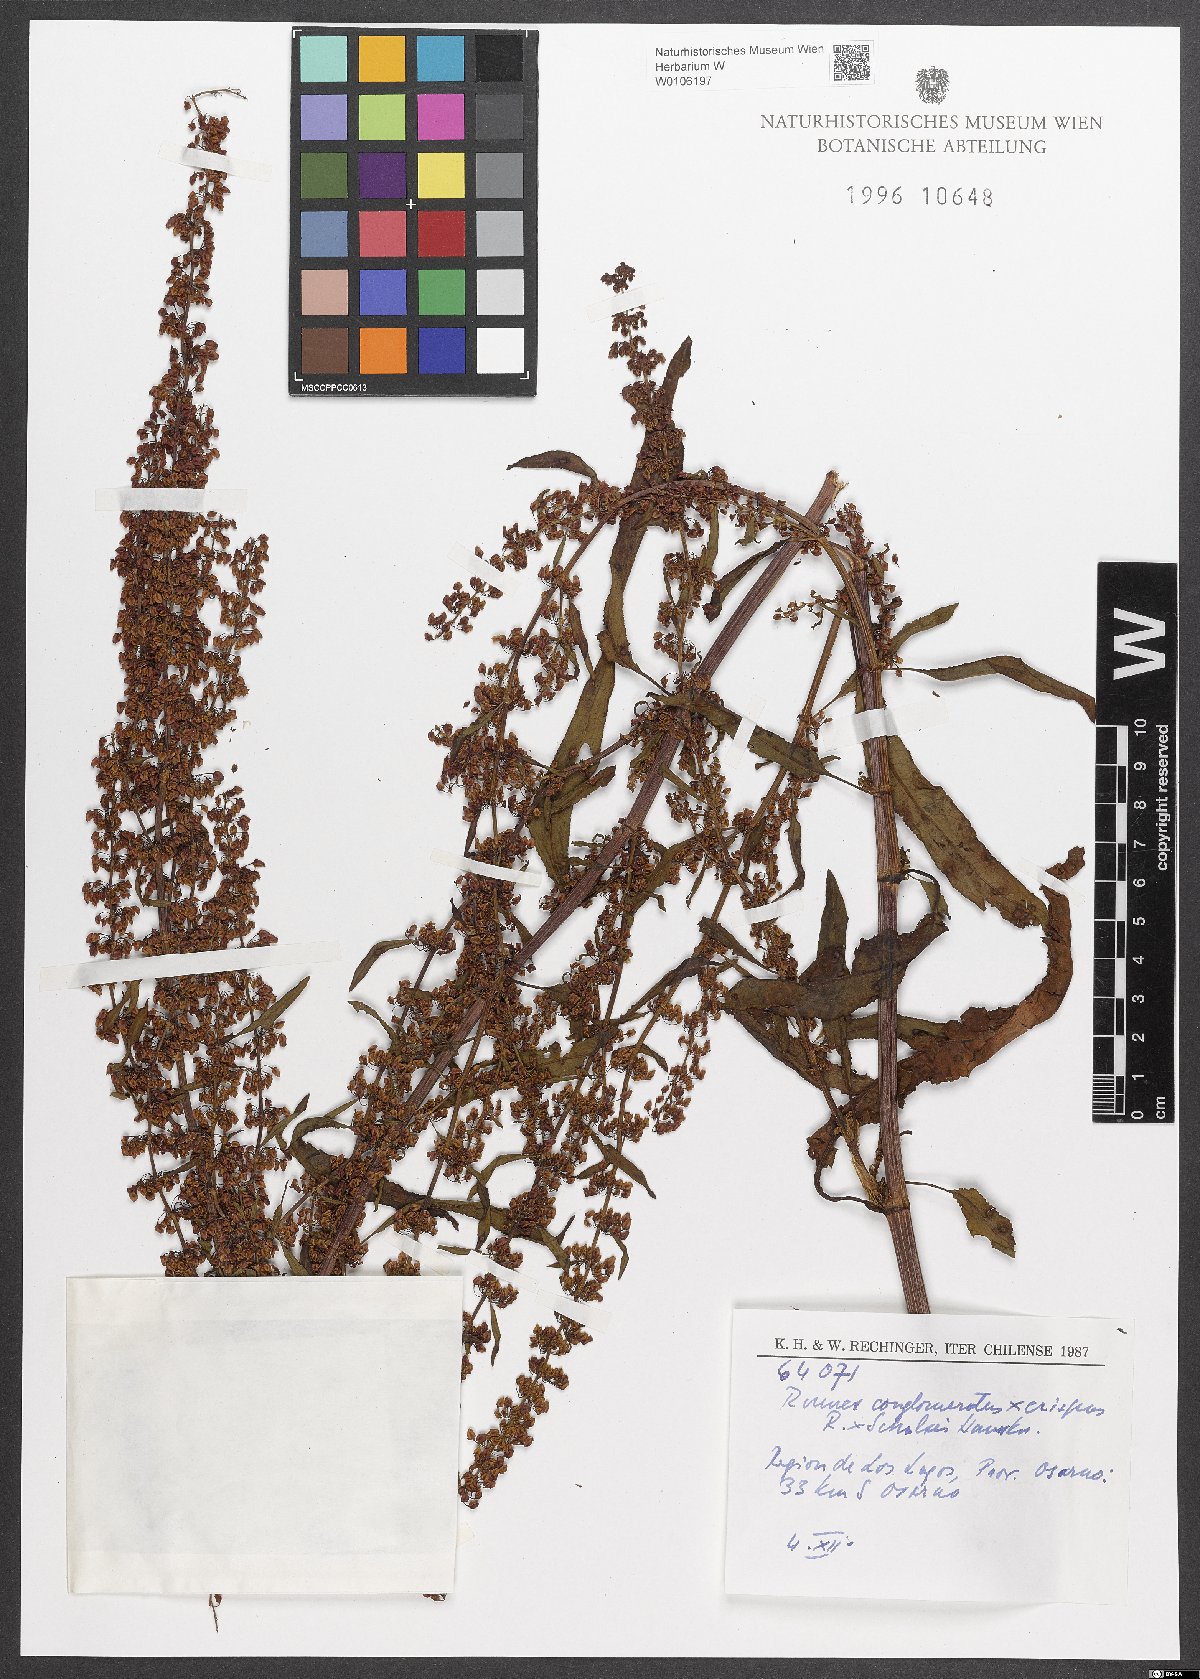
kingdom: Plantae
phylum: Tracheophyta
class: Magnoliopsida
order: Caryophyllales
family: Polygonaceae
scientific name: Polygonaceae
